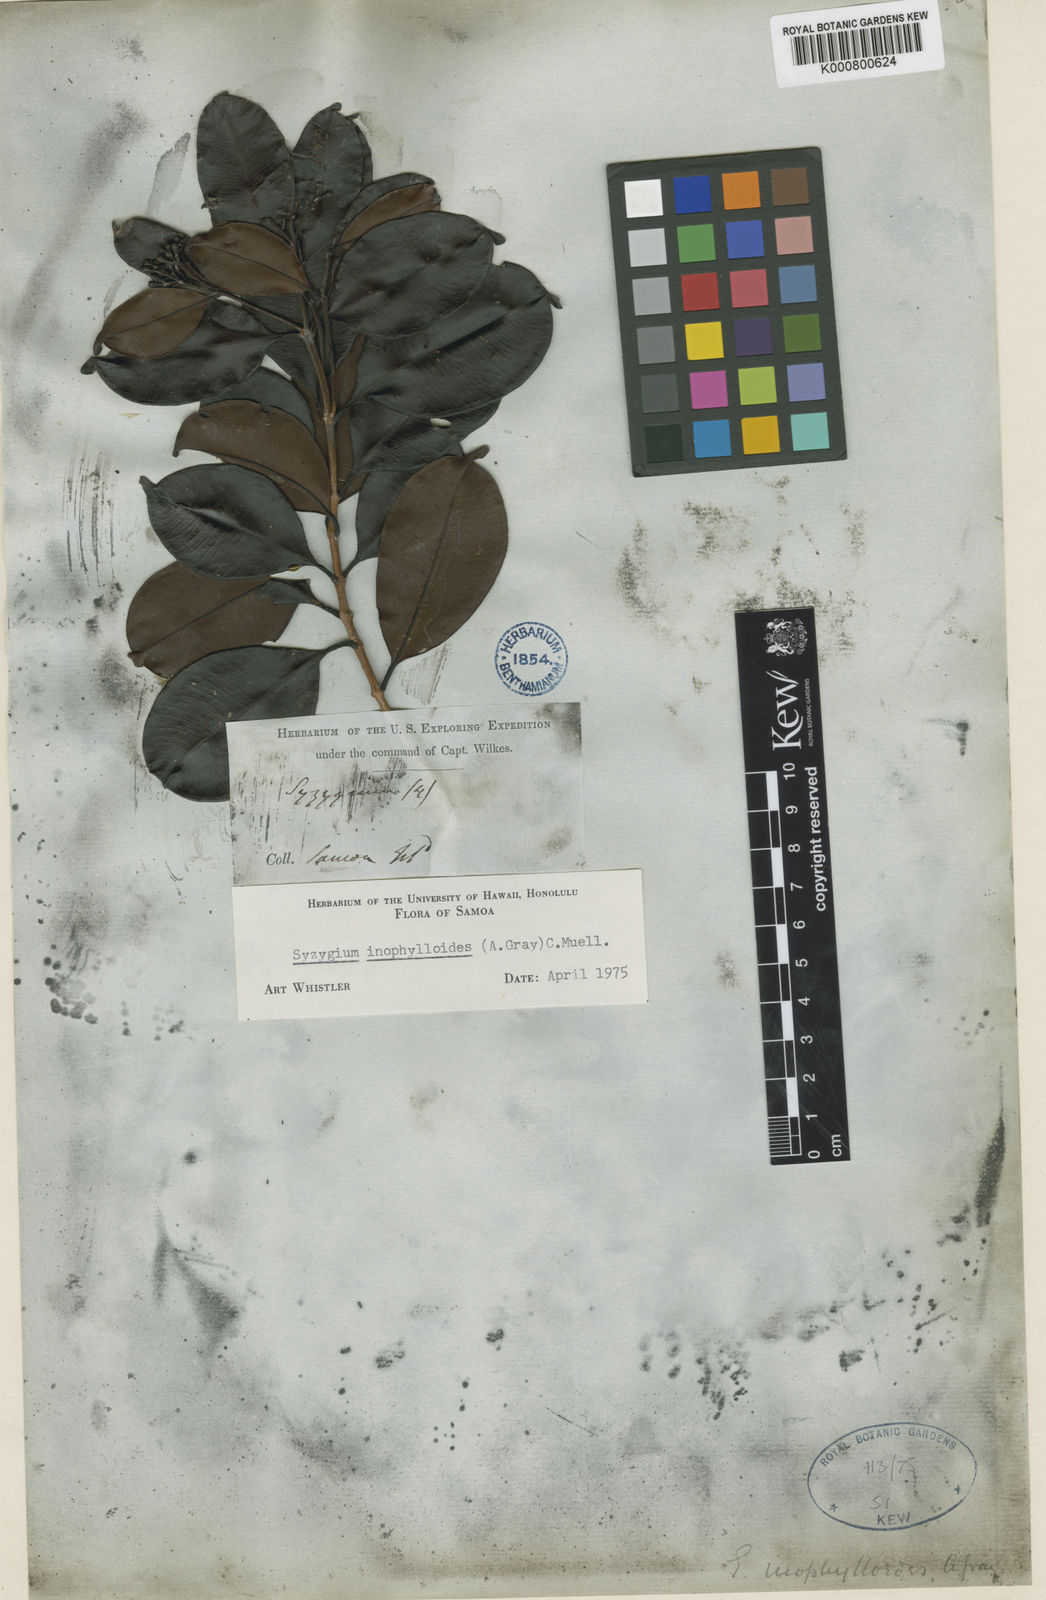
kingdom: Plantae
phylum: Tracheophyta
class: Magnoliopsida
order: Myrtales
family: Myrtaceae
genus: Syzygium
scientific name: Syzygium
